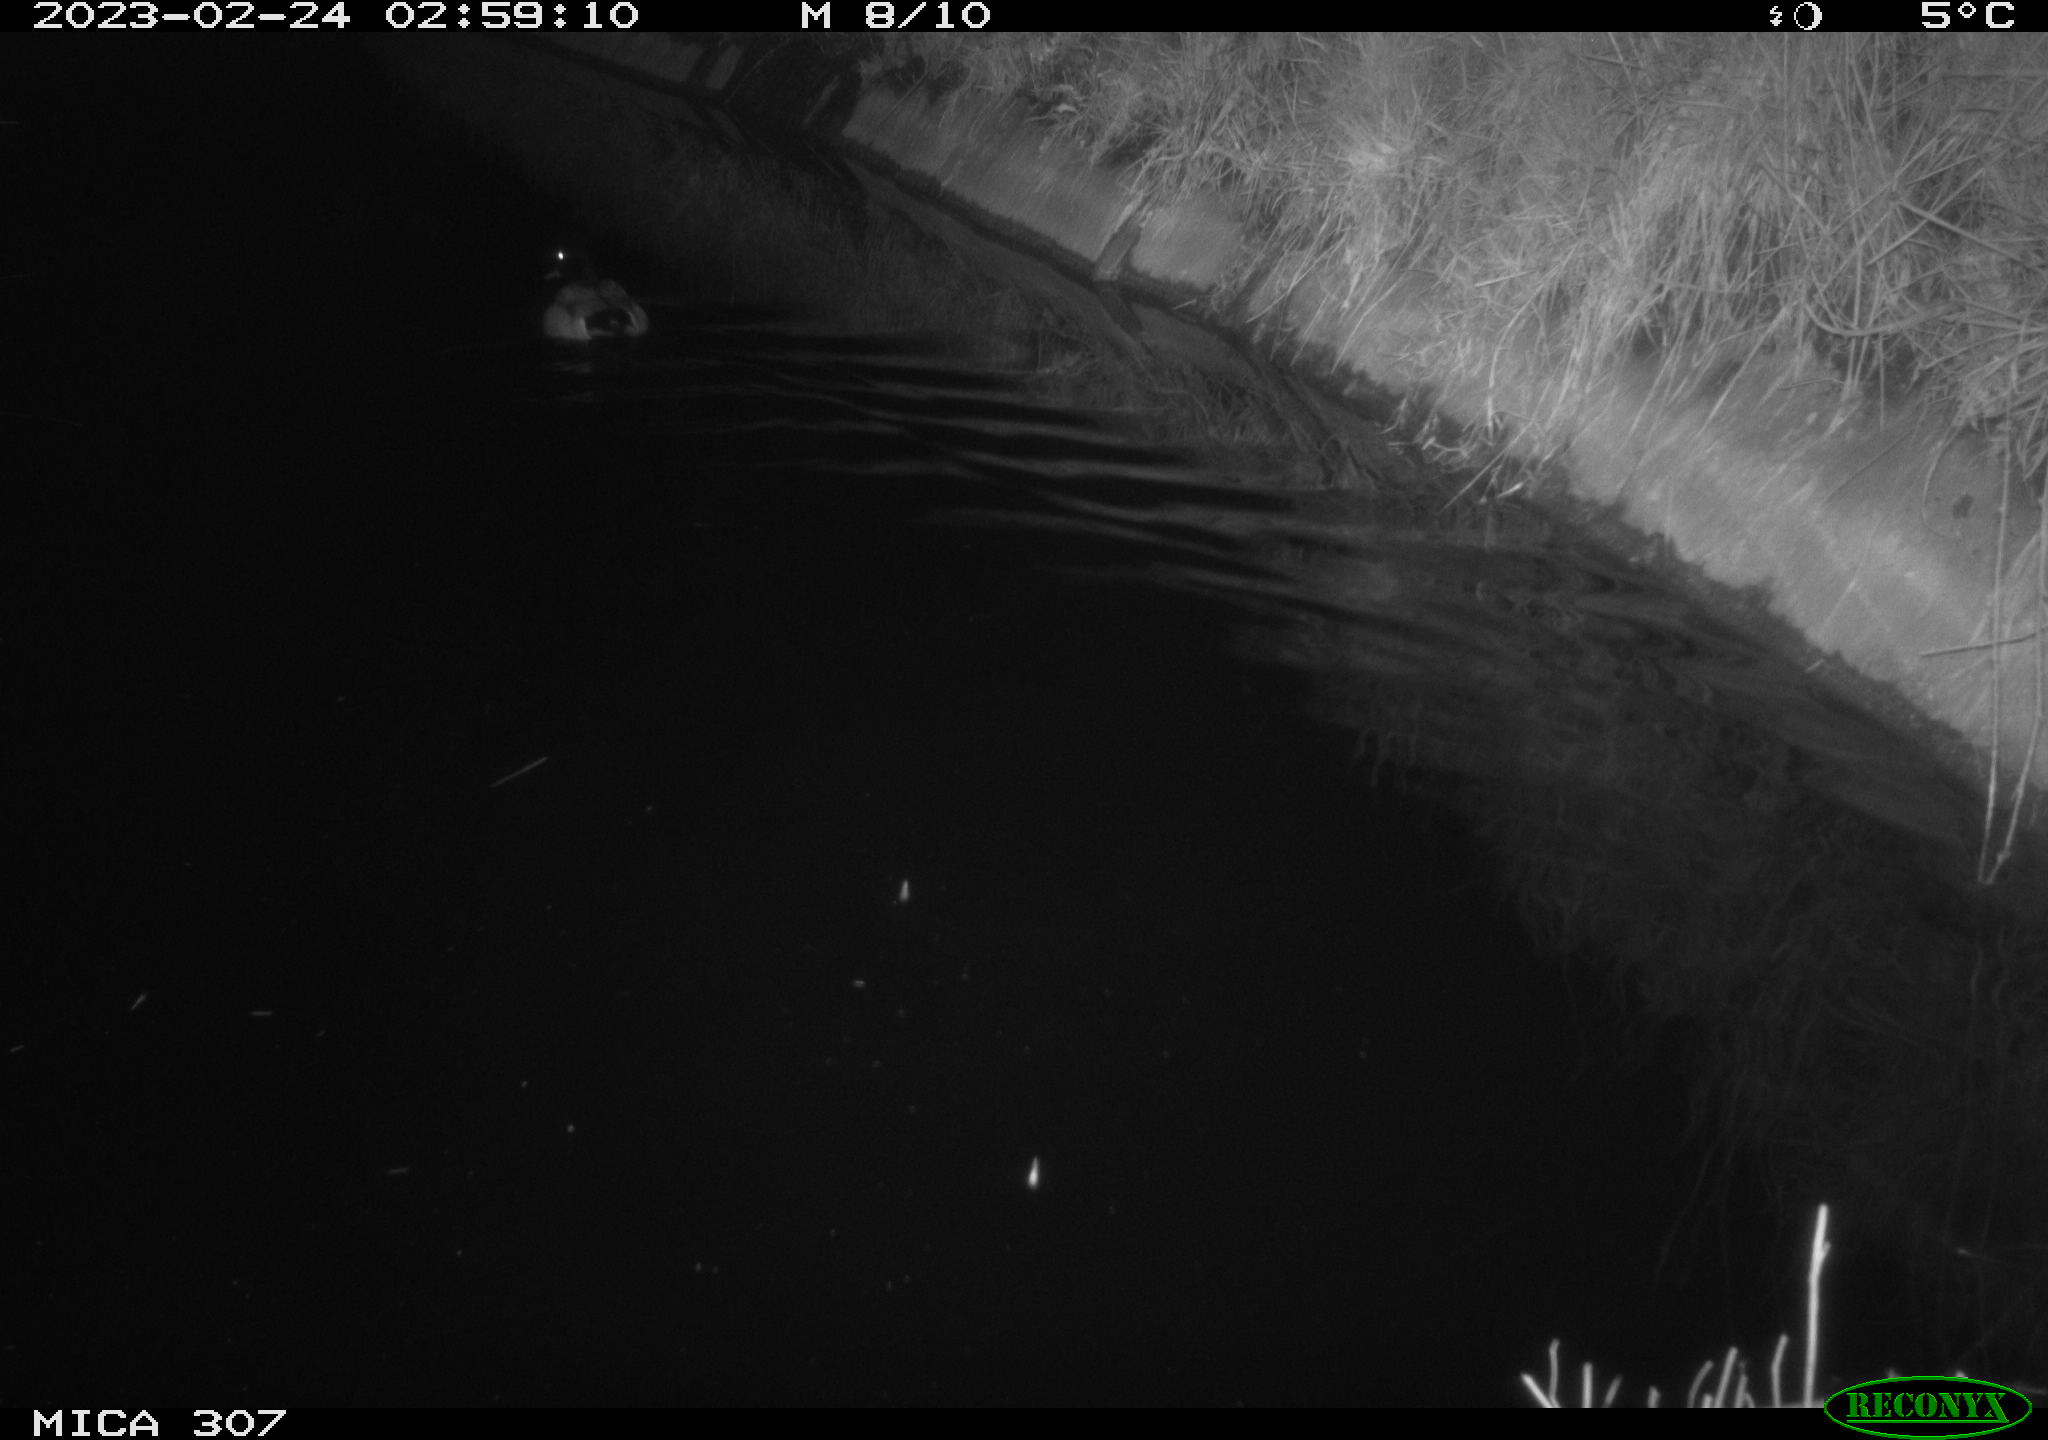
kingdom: Animalia
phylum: Chordata
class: Aves
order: Anseriformes
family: Anatidae
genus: Anas
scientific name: Anas
